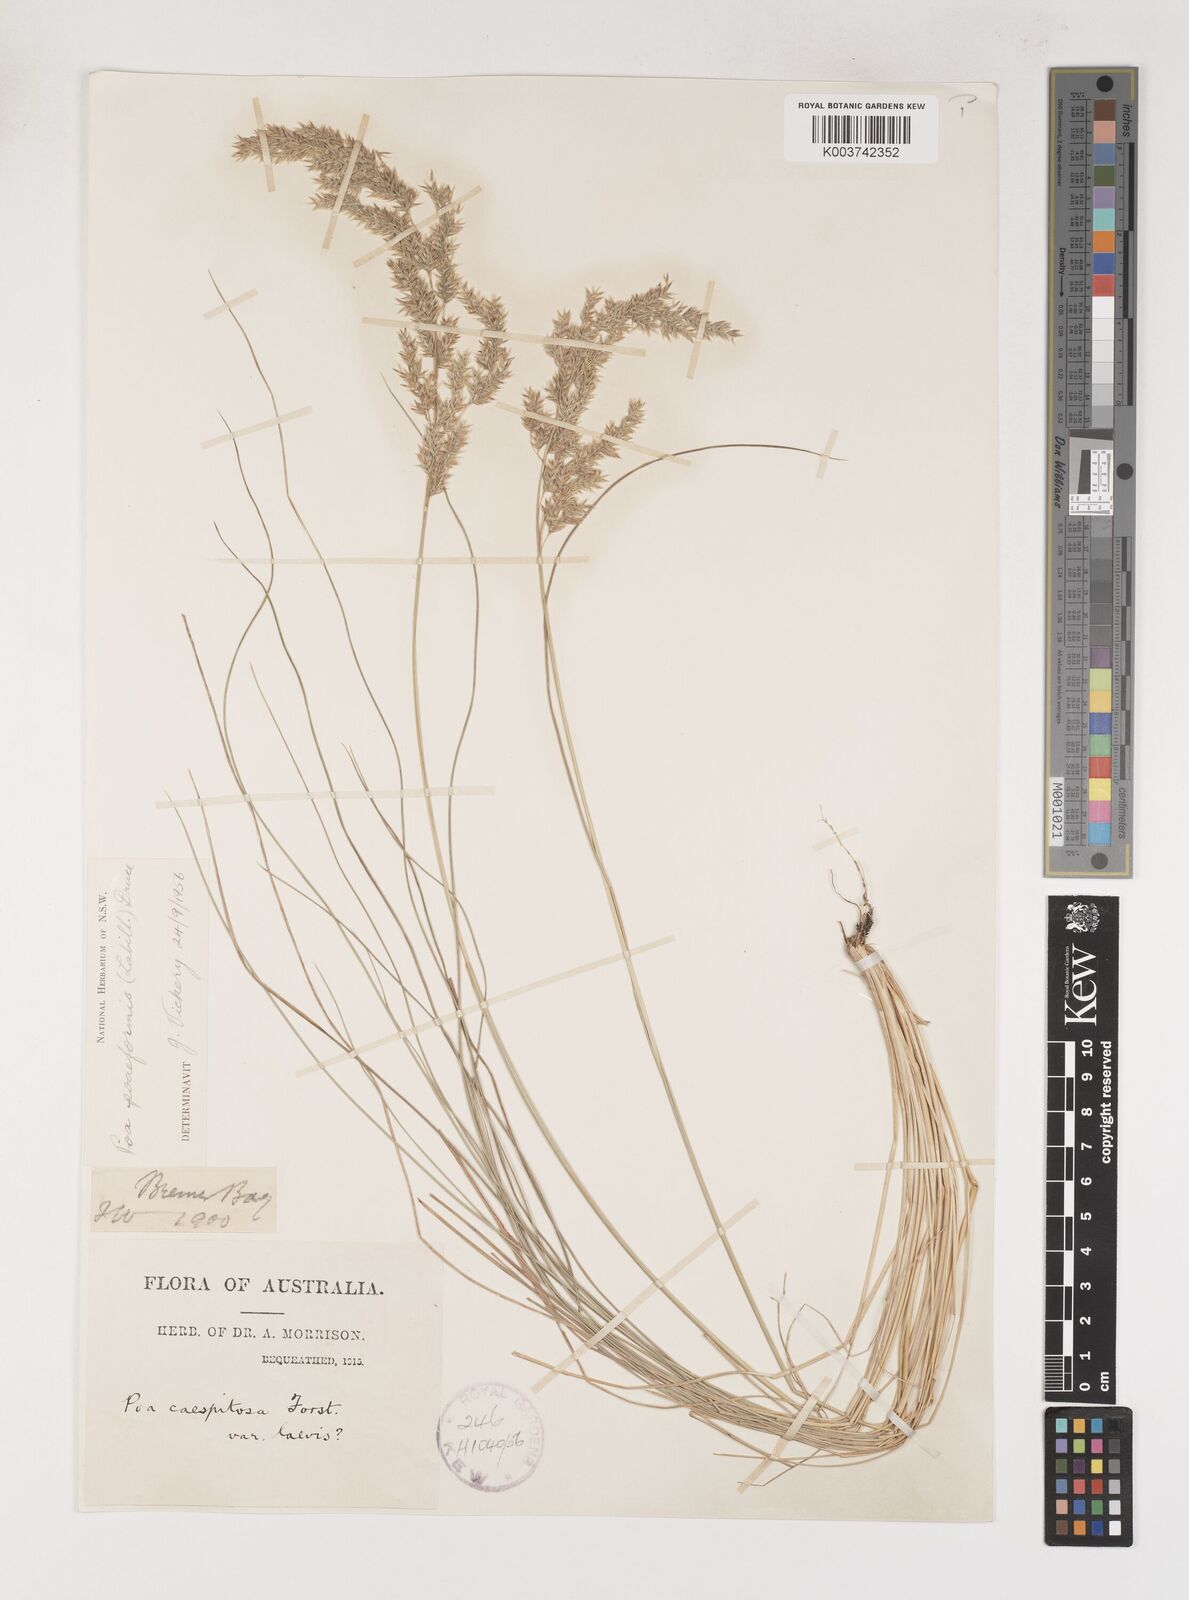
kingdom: Plantae
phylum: Tracheophyta
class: Liliopsida
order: Poales
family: Poaceae
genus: Poa
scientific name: Poa poiformis
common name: Tussock poa
